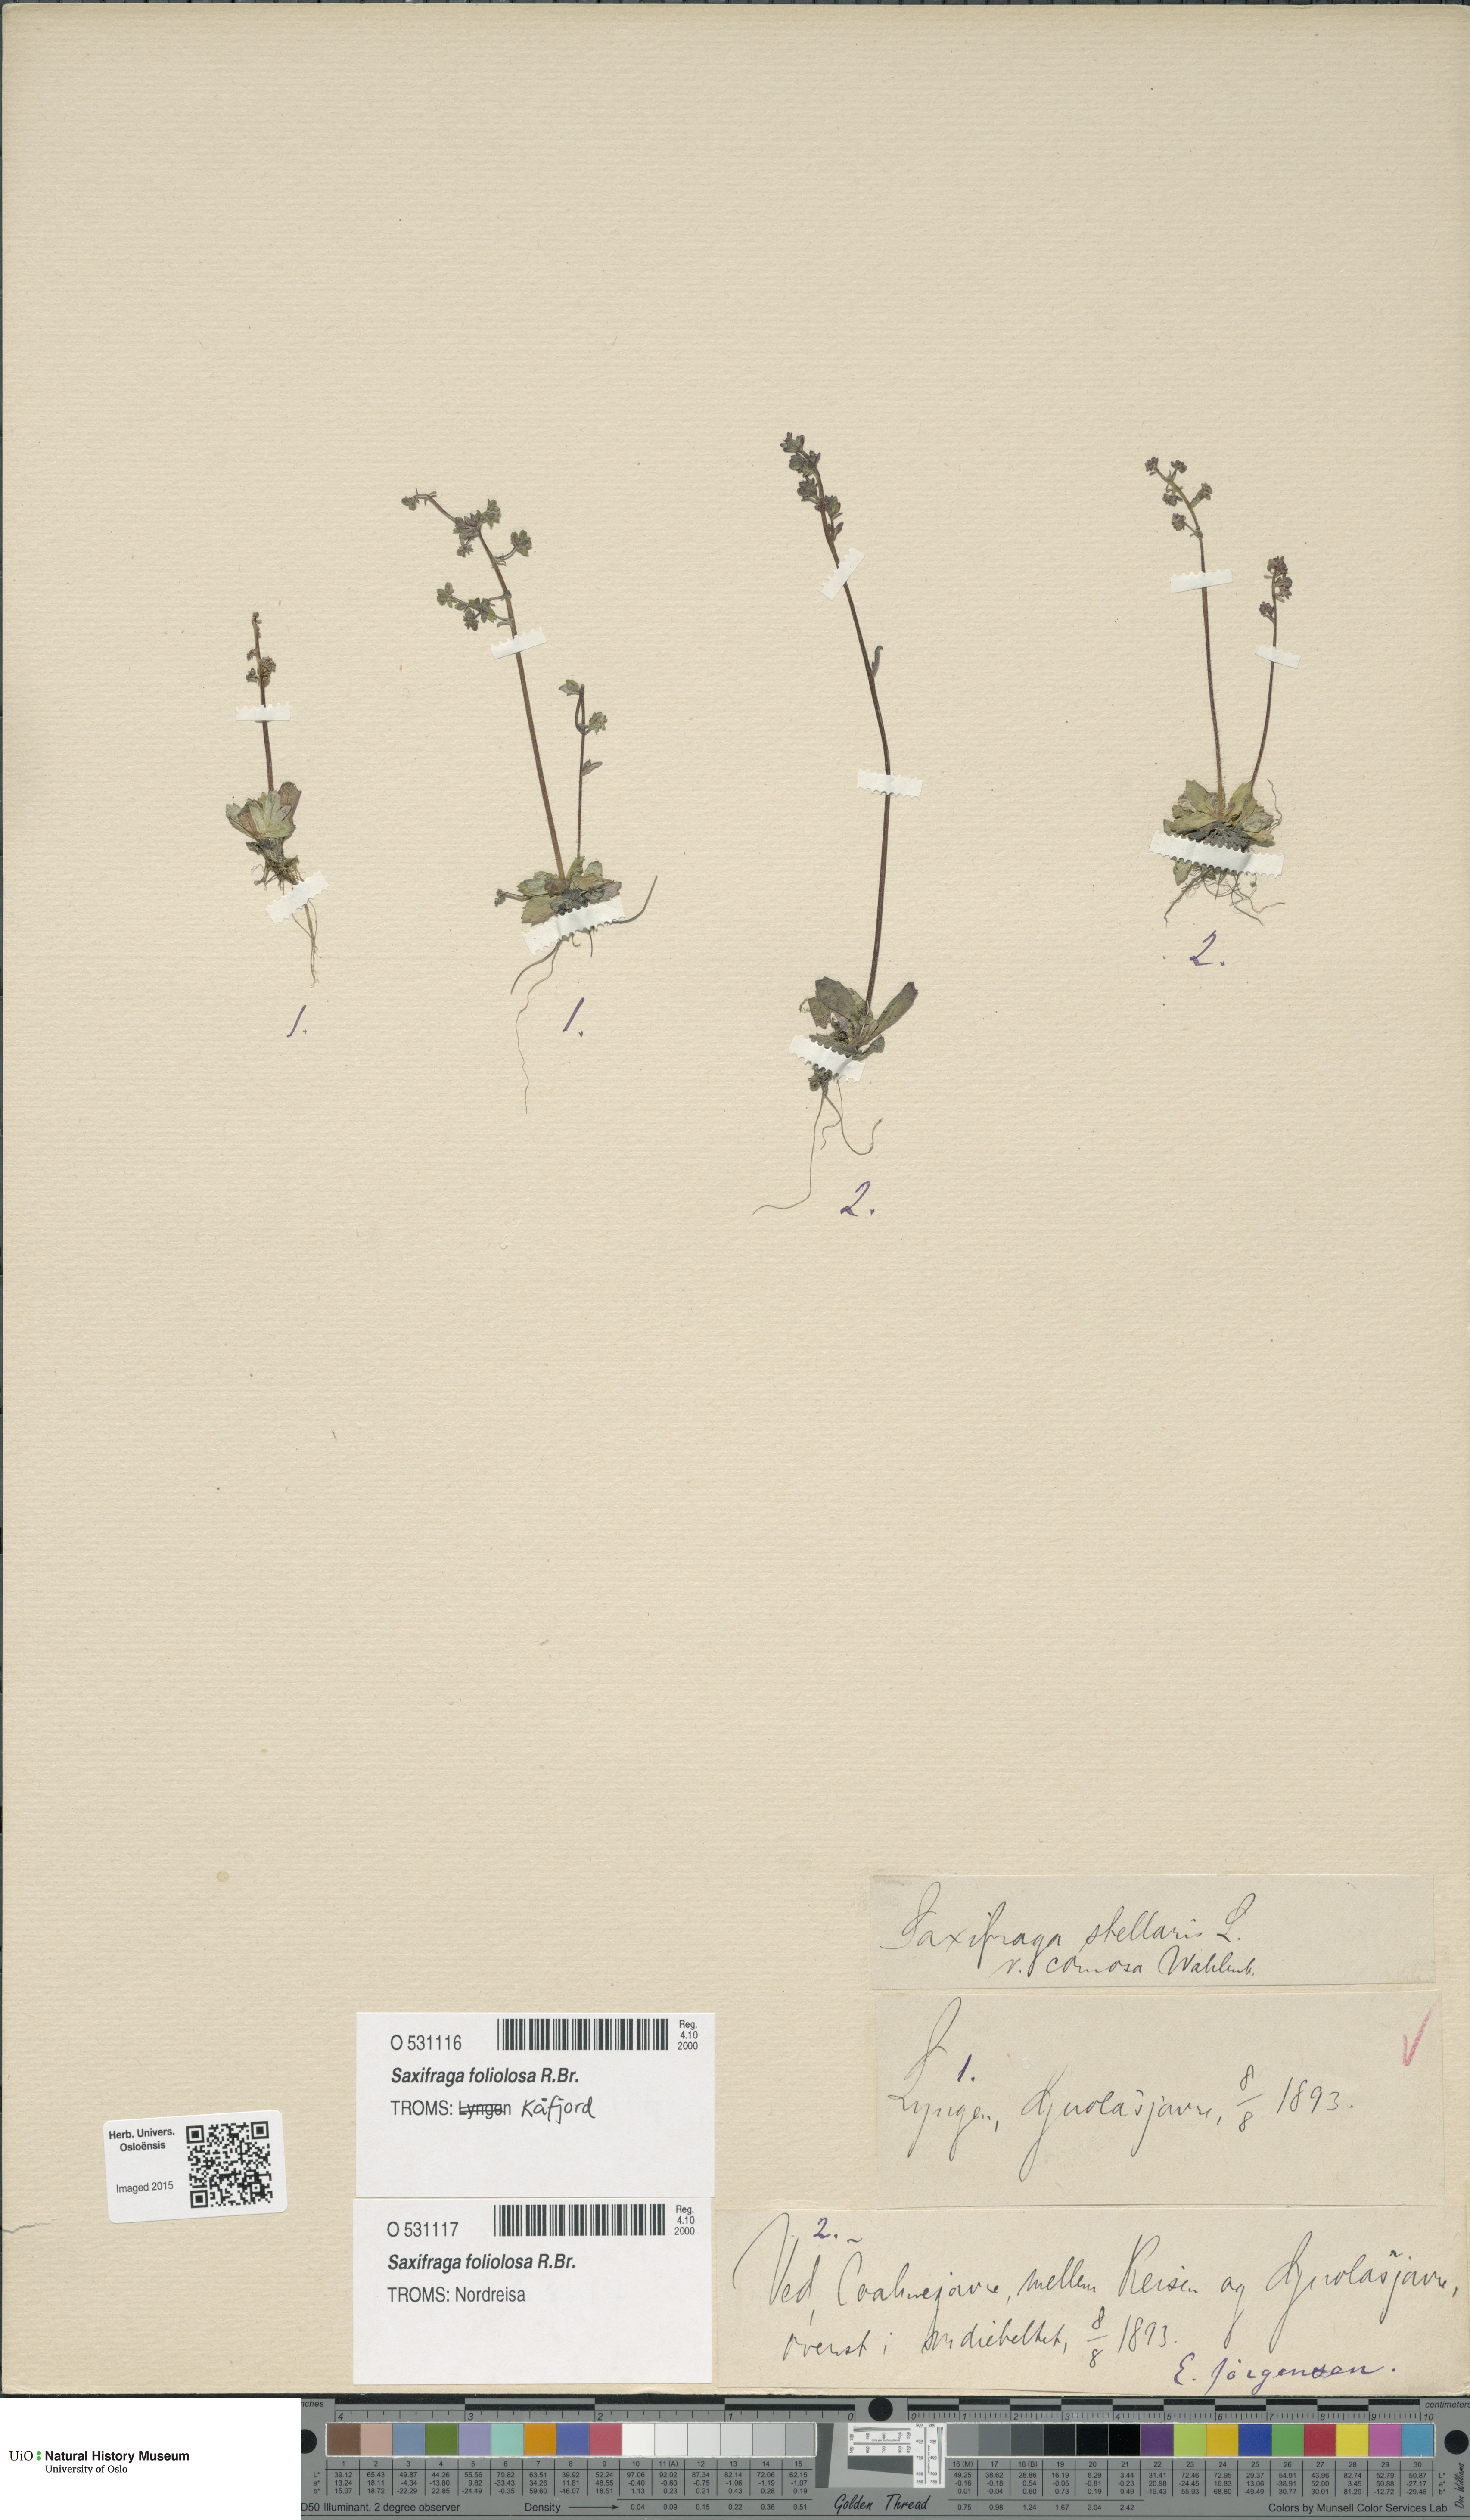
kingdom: Plantae
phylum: Tracheophyta
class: Magnoliopsida
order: Saxifragales
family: Saxifragaceae
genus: Micranthes
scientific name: Micranthes foliolosa
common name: Leafystem saxifrage
